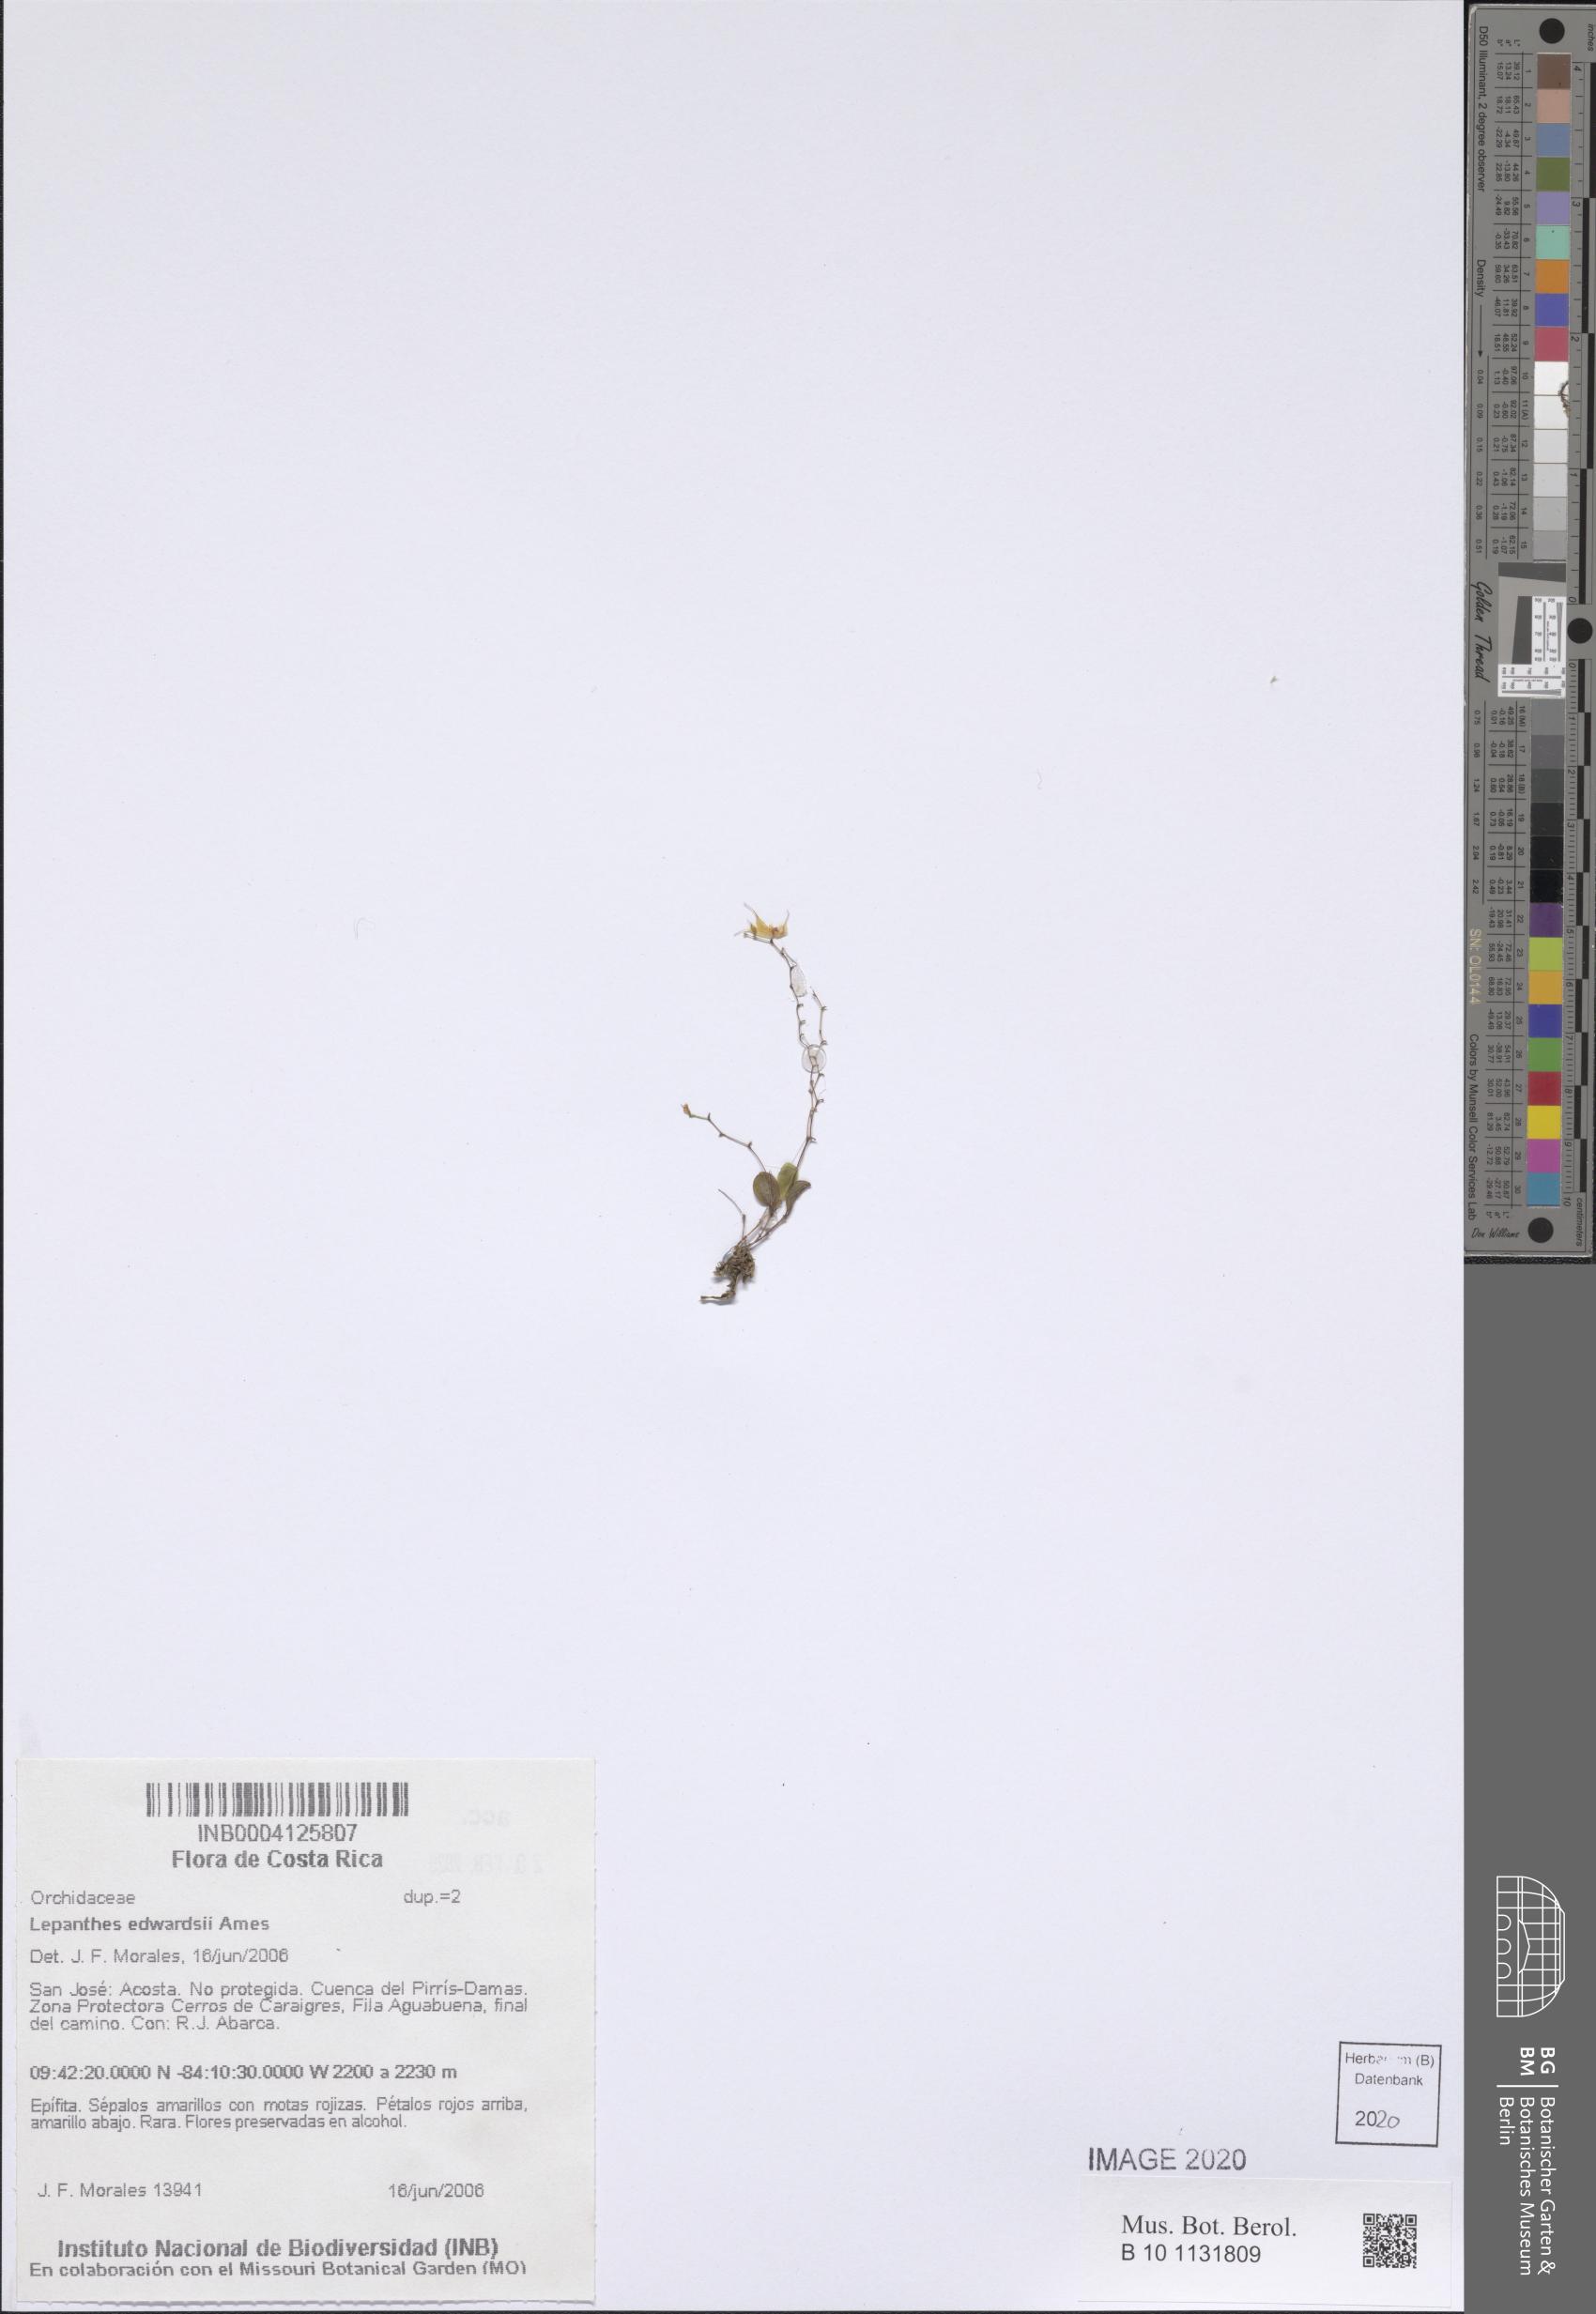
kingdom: Plantae
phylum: Tracheophyta
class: Liliopsida
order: Asparagales
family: Orchidaceae
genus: Lepanthes
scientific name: Lepanthes edwardsii
